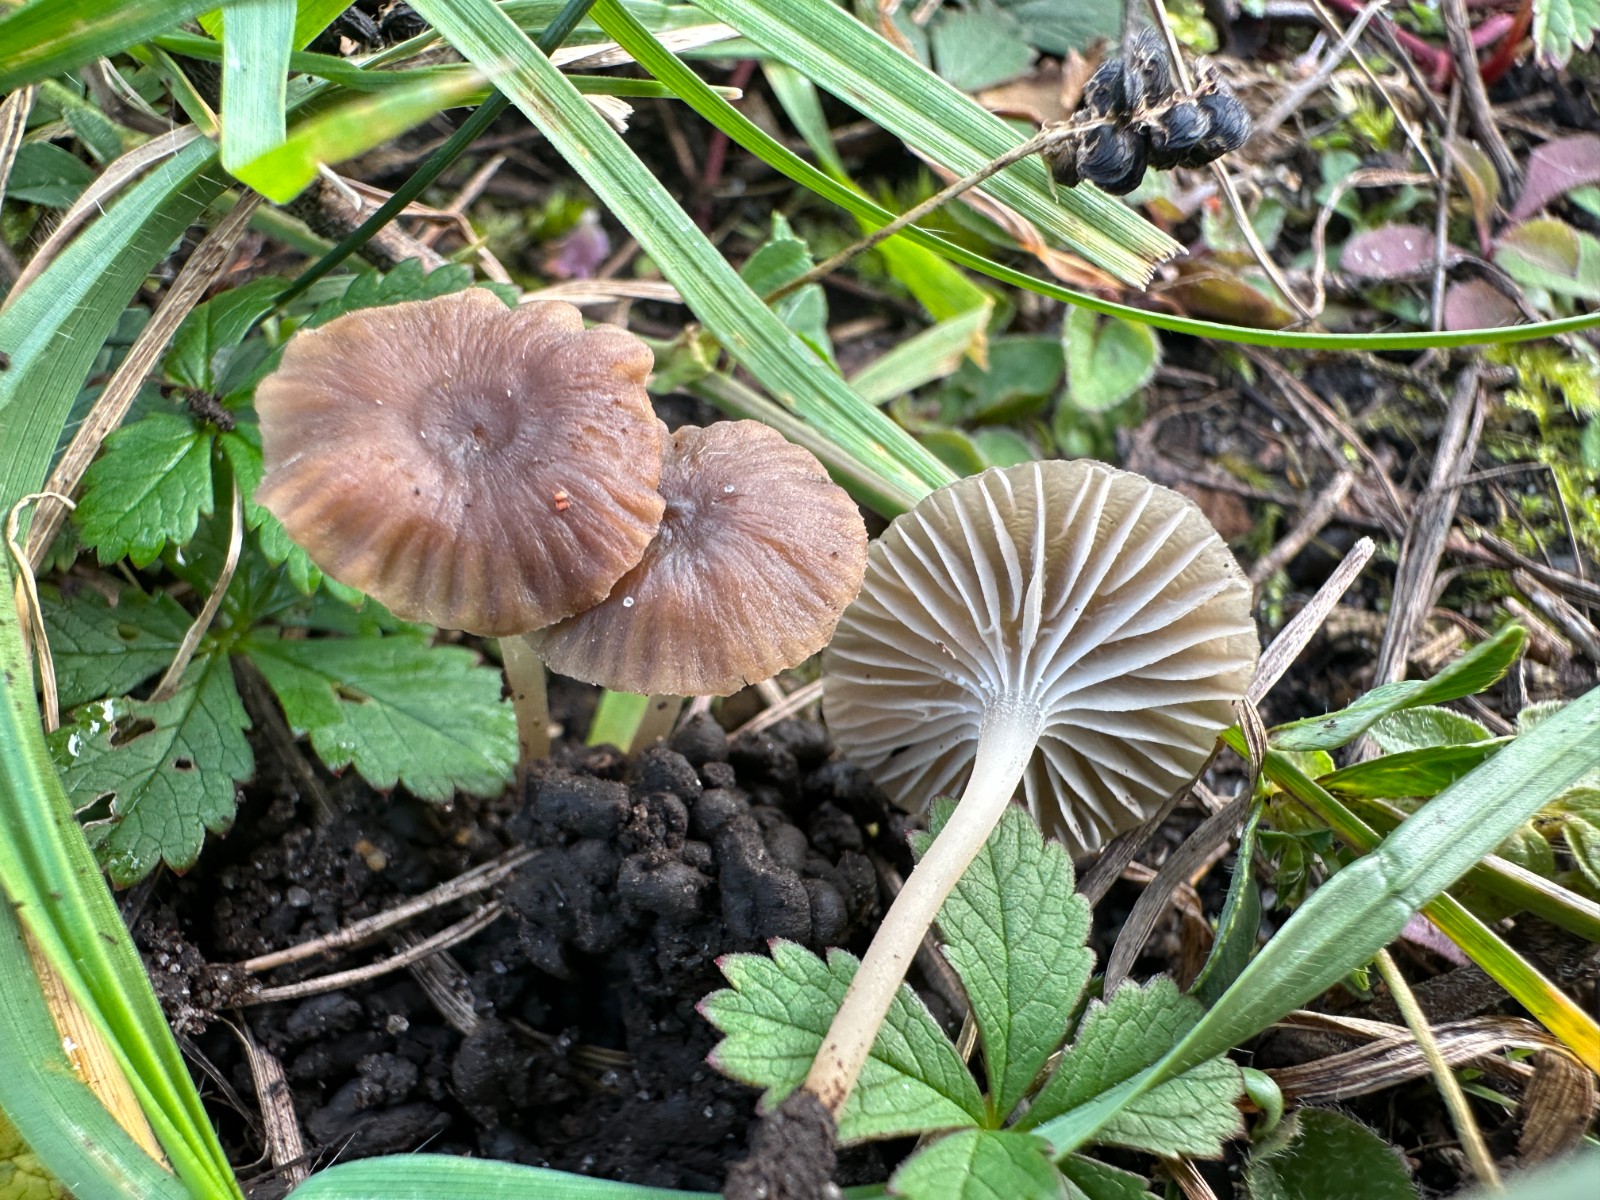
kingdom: Fungi
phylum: Basidiomycota
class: Agaricomycetes
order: Agaricales
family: Tricholomataceae
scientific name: Tricholomataceae
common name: ridderhatfamilien
